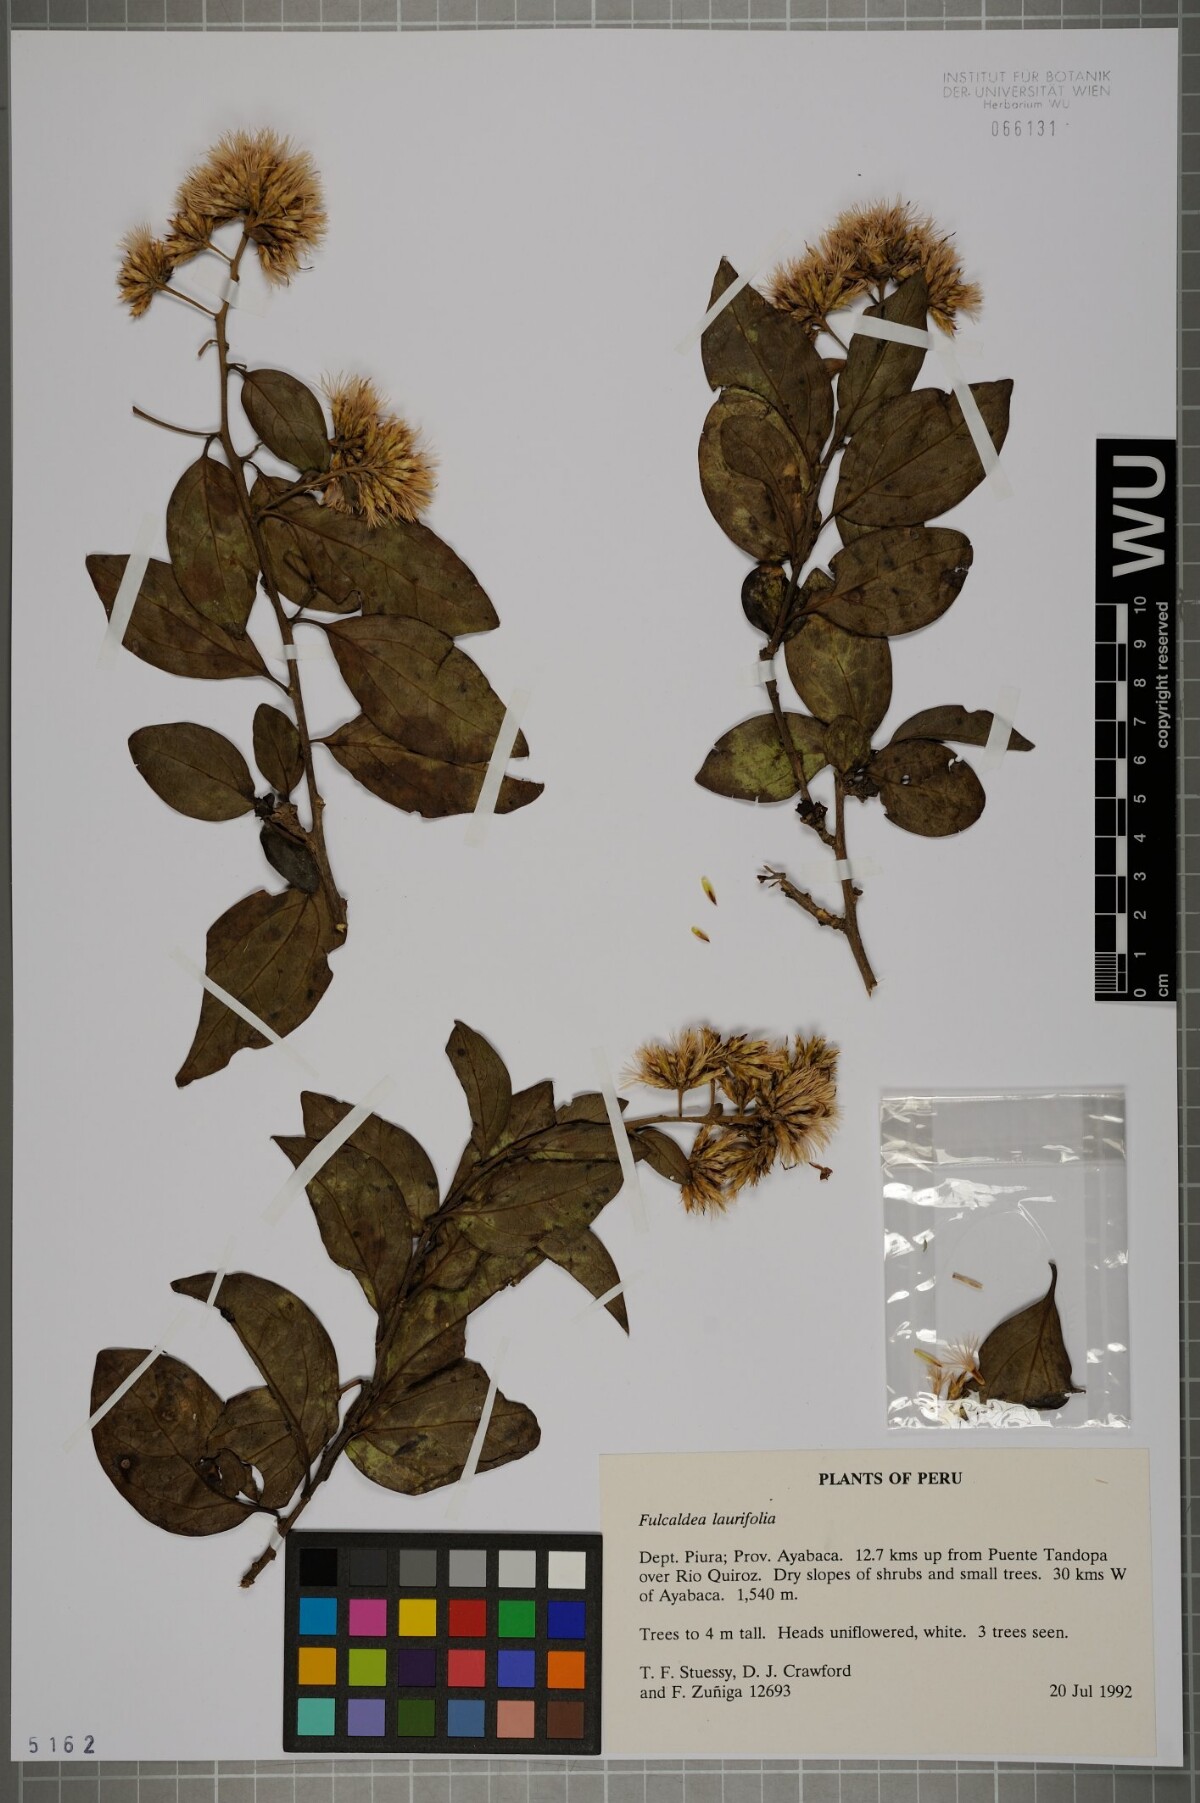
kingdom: Plantae
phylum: Tracheophyta
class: Magnoliopsida
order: Asterales
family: Asteraceae
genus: Fulcaldea
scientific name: Fulcaldea laurifolia
